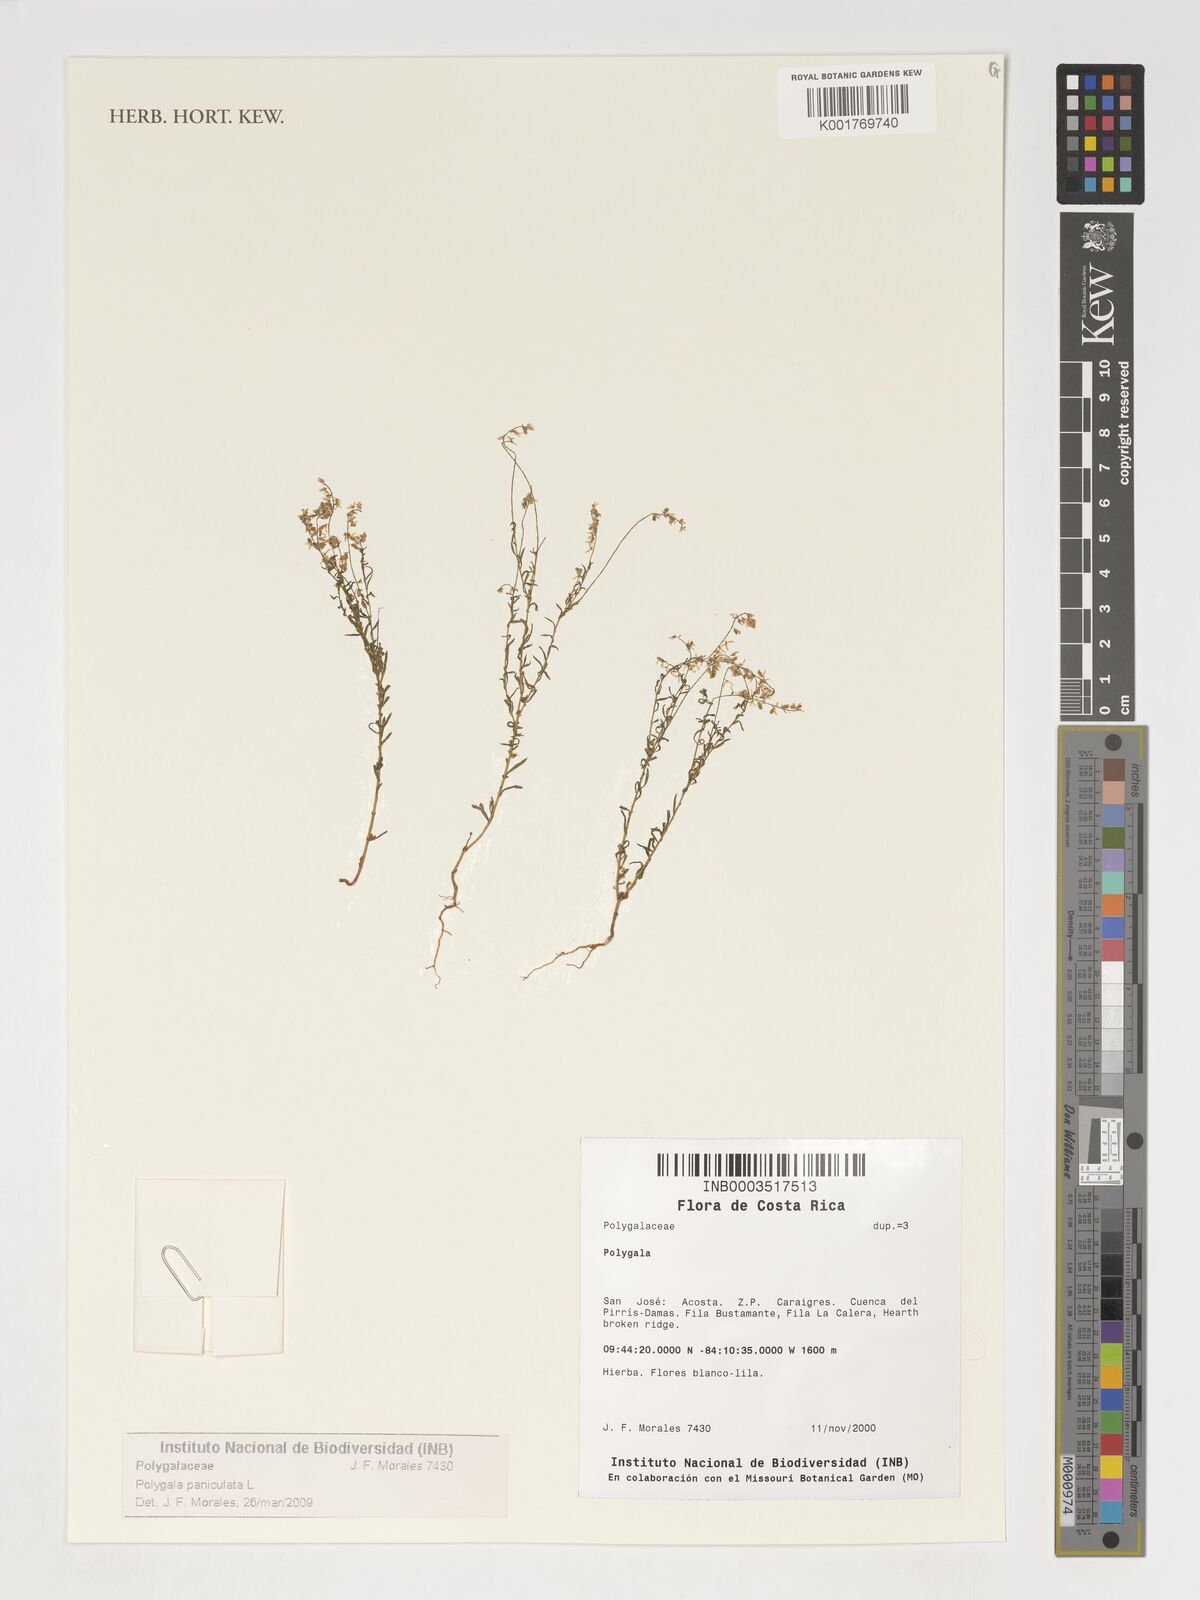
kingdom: Plantae
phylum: Tracheophyta
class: Magnoliopsida
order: Fabales
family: Polygalaceae
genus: Polygala
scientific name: Polygala paniculata
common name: Orosne
